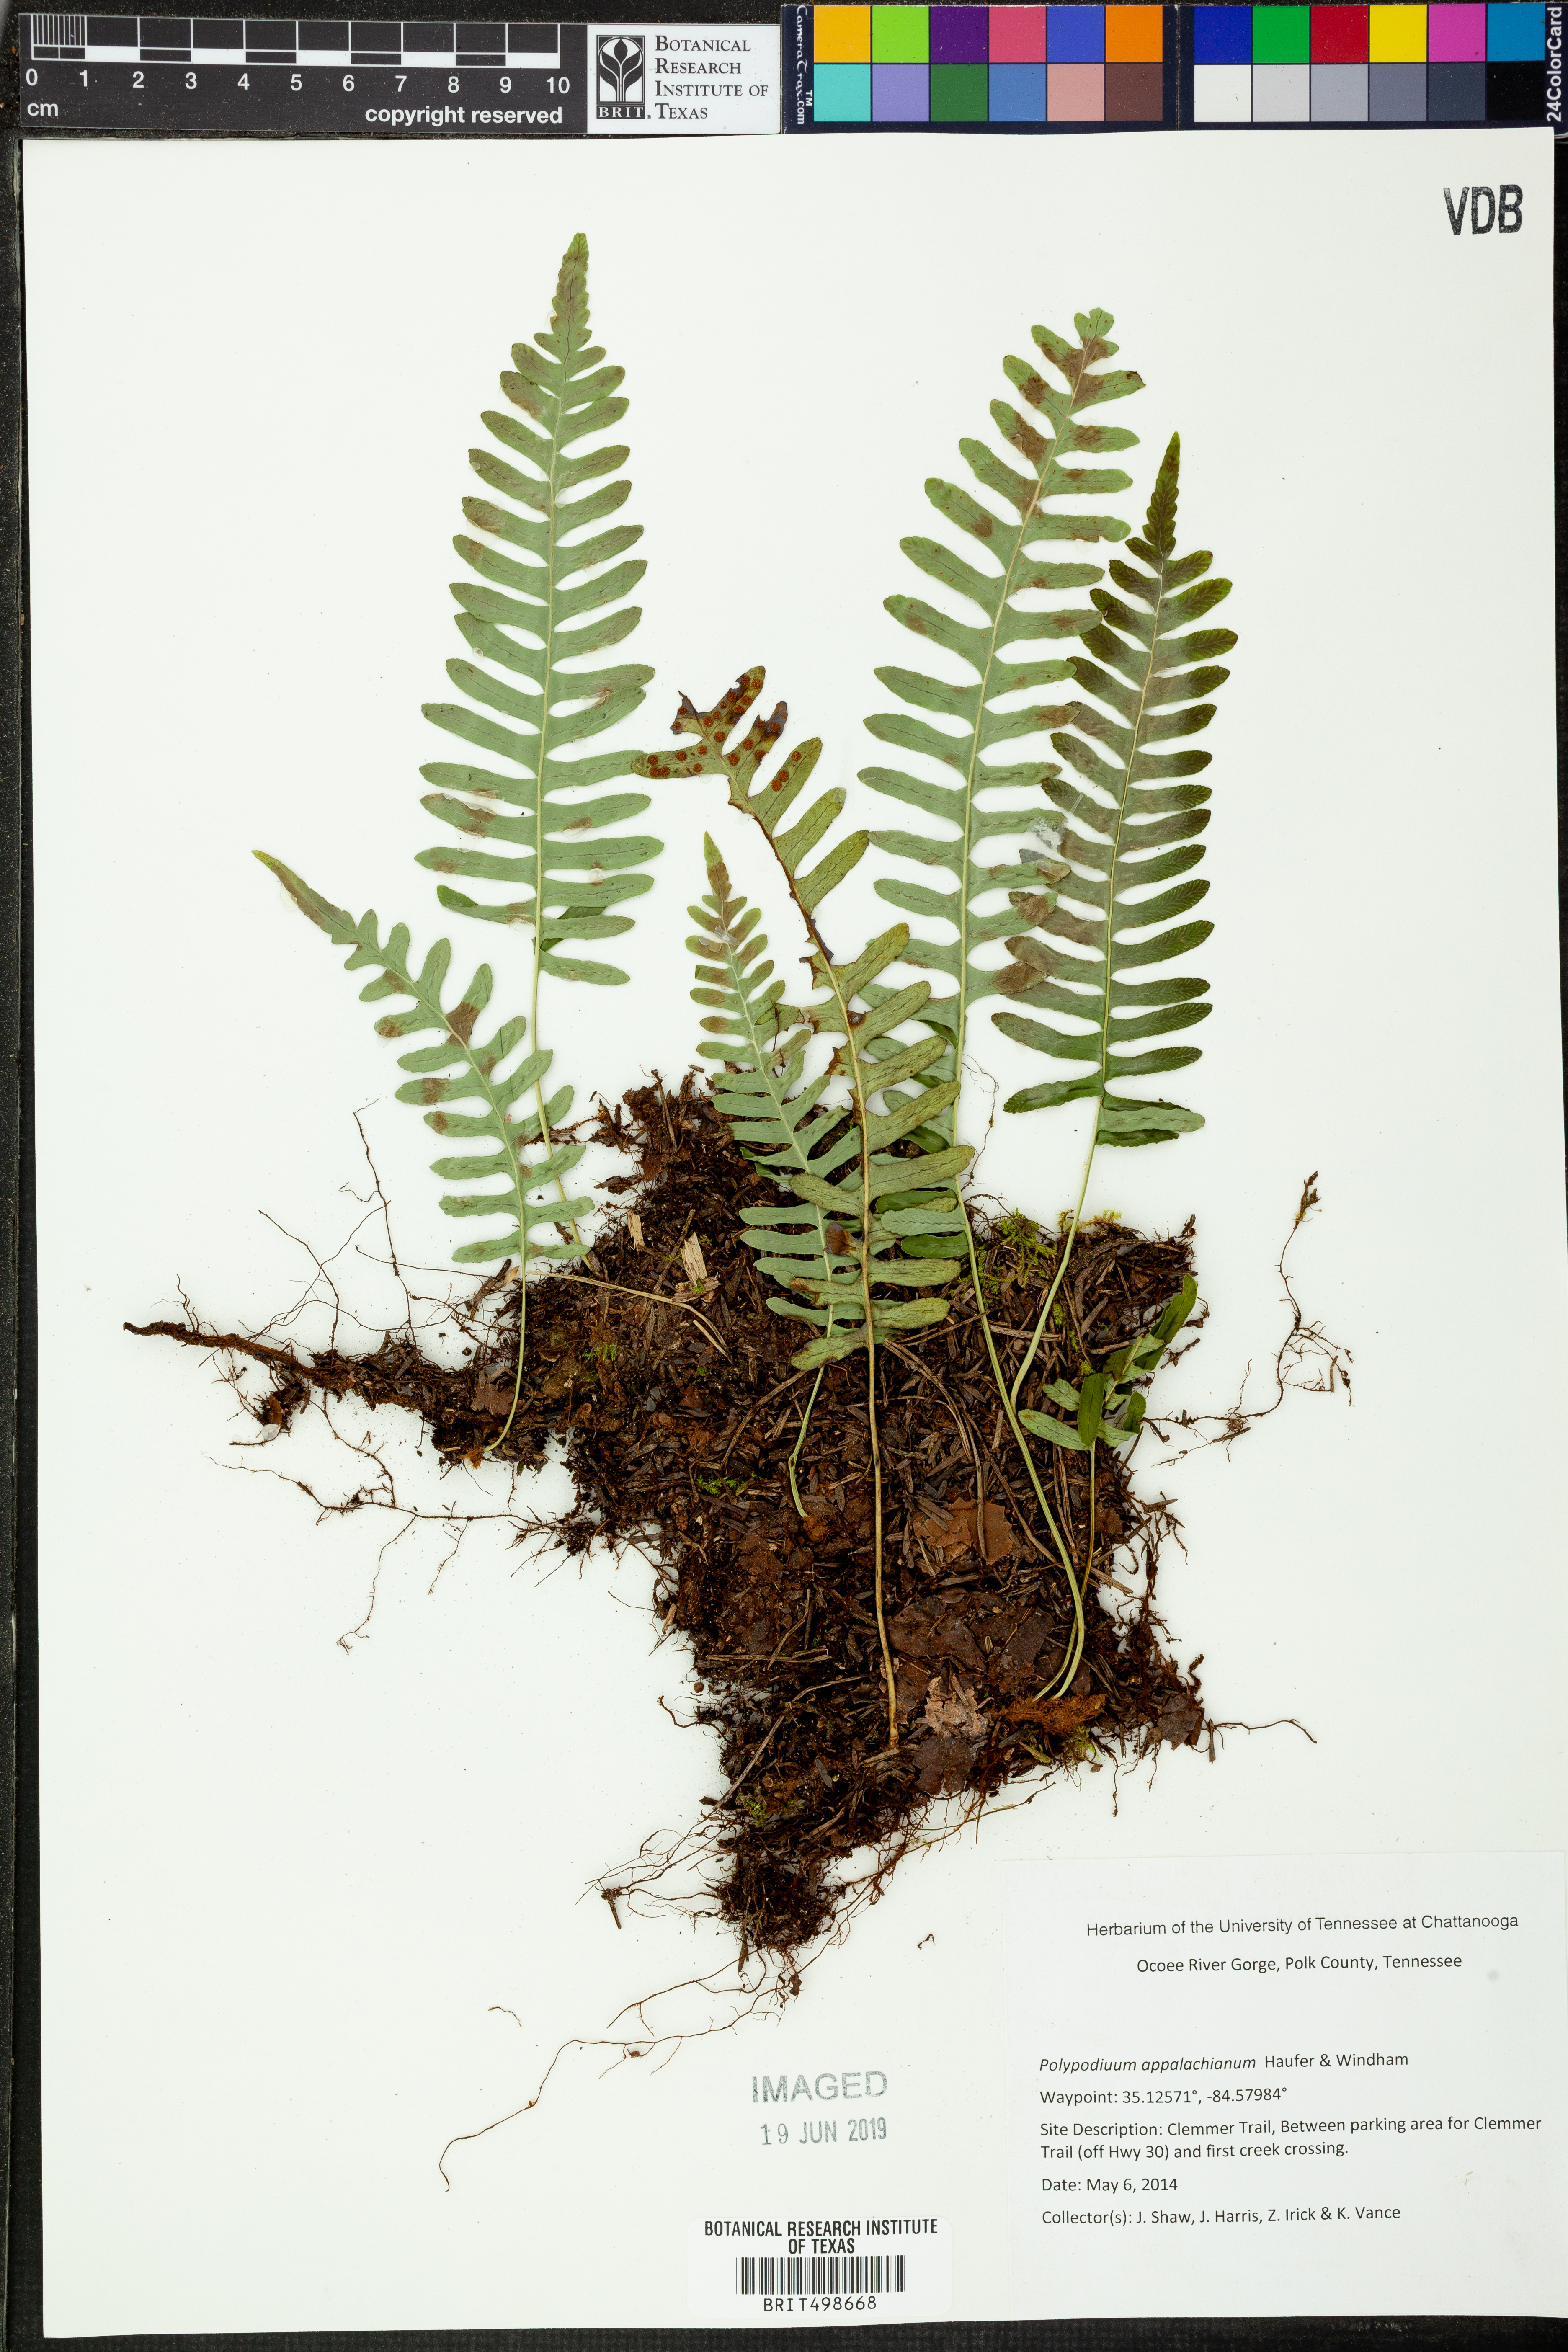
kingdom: Plantae
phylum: Tracheophyta
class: Polypodiopsida
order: Polypodiales
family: Polypodiaceae
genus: Polypodium
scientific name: Polypodium appalachianum
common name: Appalachian polypody
